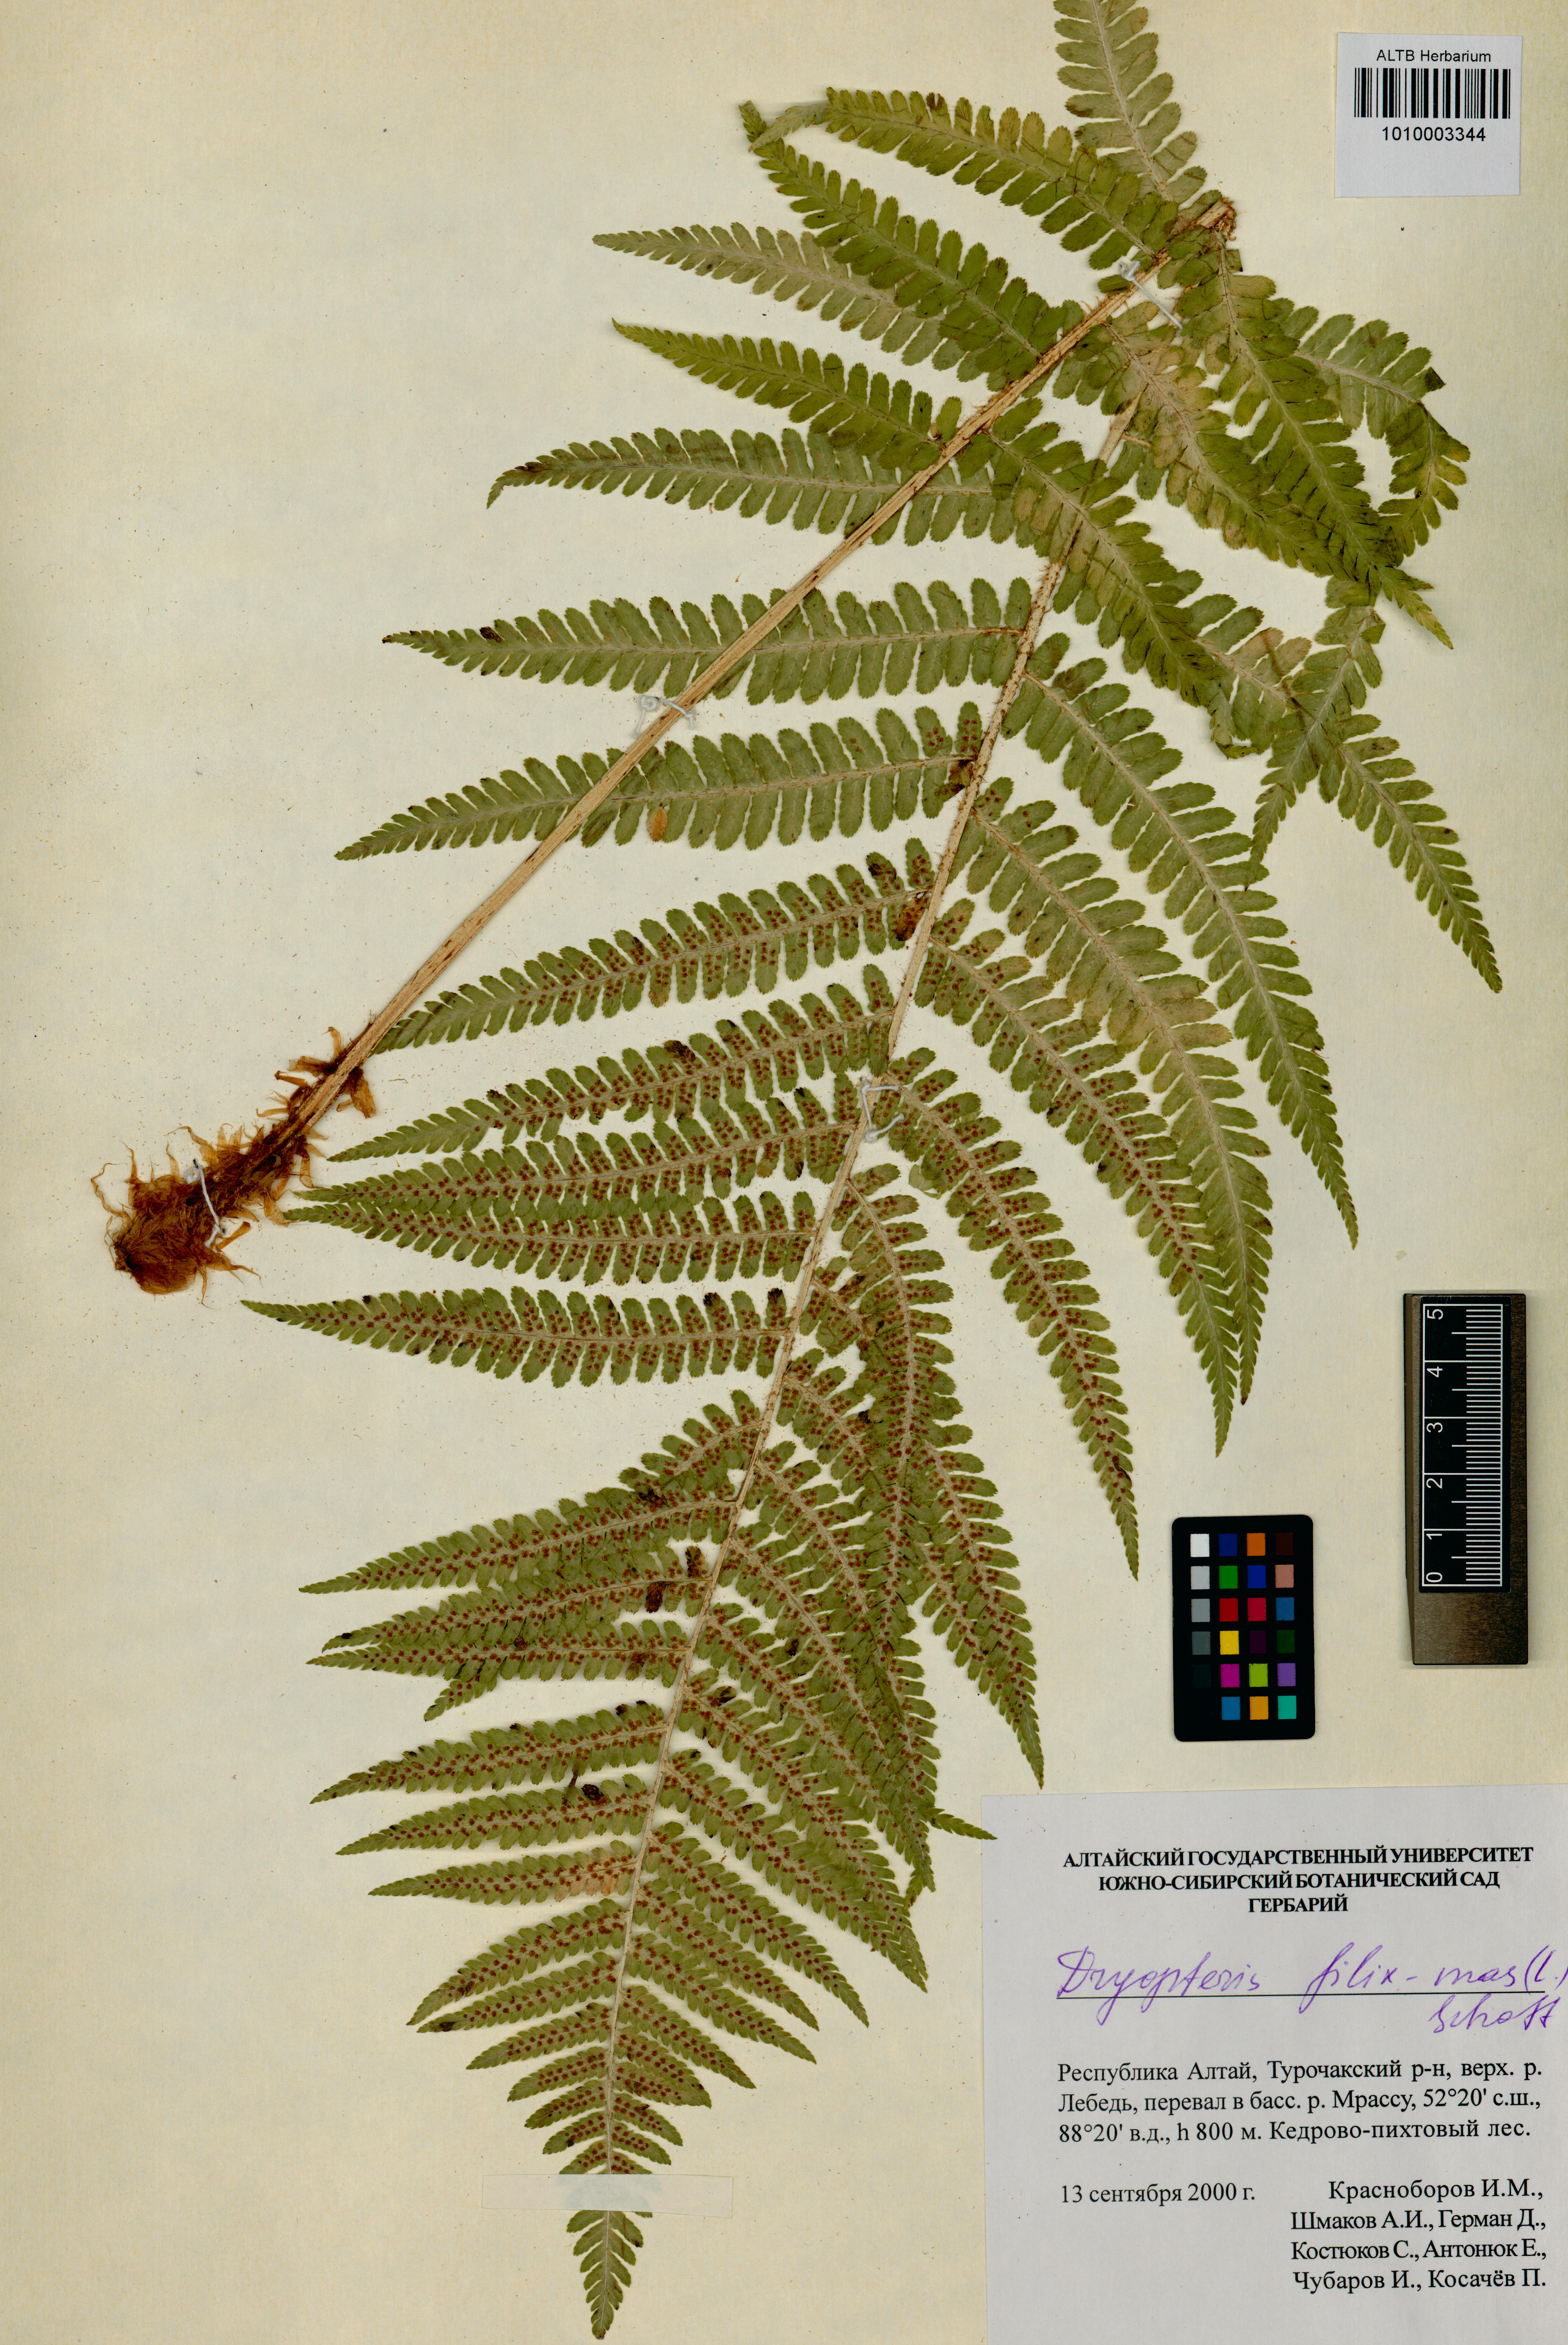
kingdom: Plantae
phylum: Tracheophyta
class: Polypodiopsida
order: Polypodiales
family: Dryopteridaceae
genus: Dryopteris
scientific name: Dryopteris filix-mas
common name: Male fern
